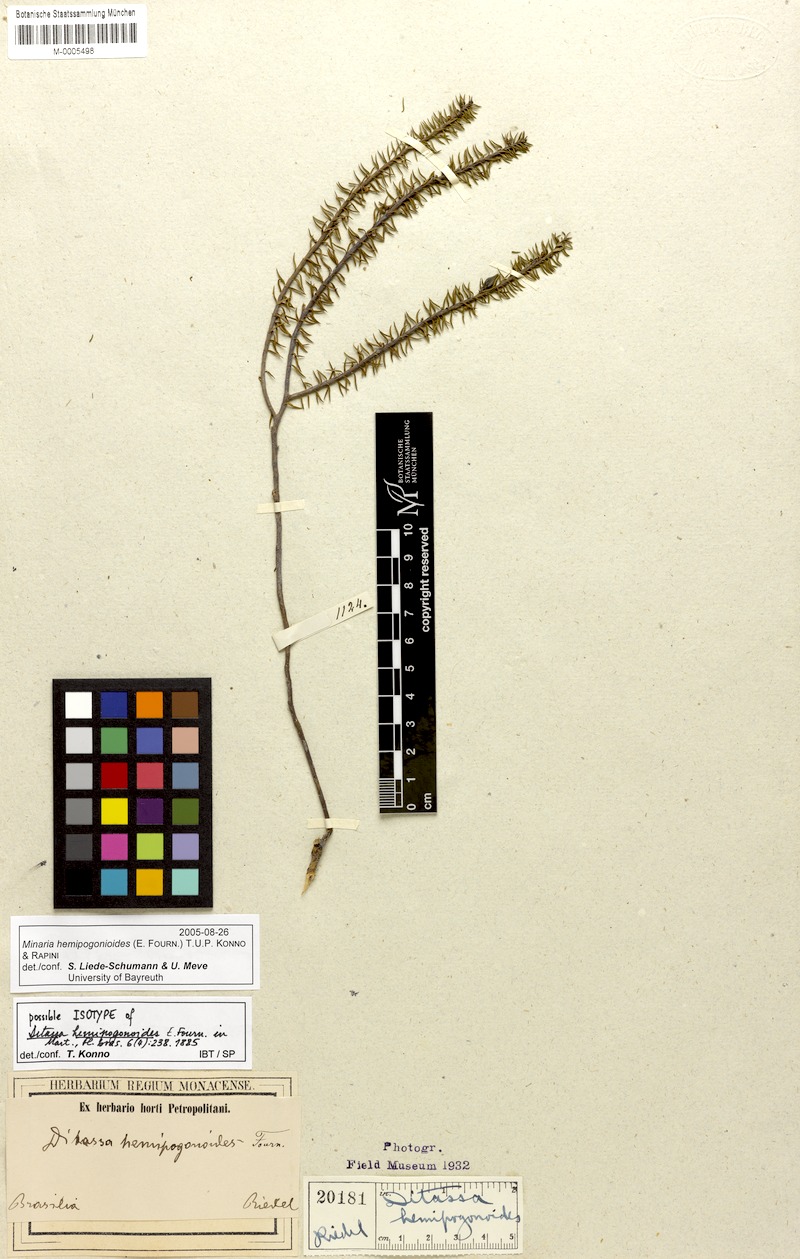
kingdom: Plantae
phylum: Tracheophyta
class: Magnoliopsida
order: Gentianales
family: Apocynaceae
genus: Minaria
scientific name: Minaria hemipogonoides
